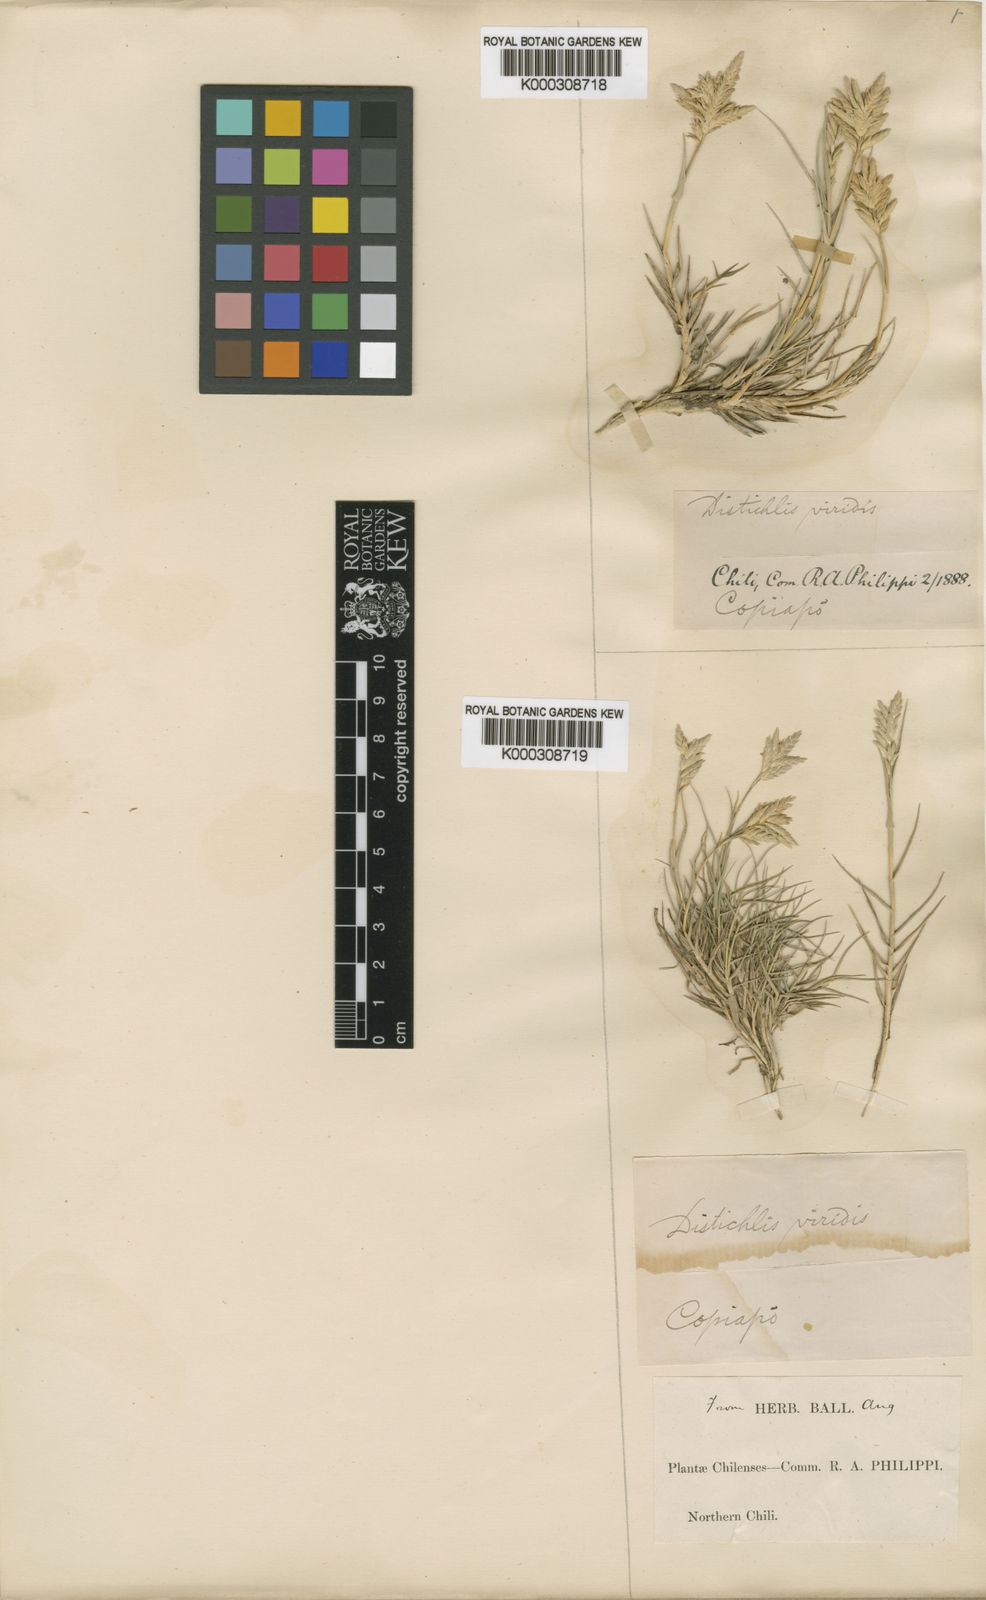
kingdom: Plantae
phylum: Tracheophyta
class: Liliopsida
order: Poales
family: Poaceae
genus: Distichlis
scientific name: Distichlis spicata
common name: Saltgrass
